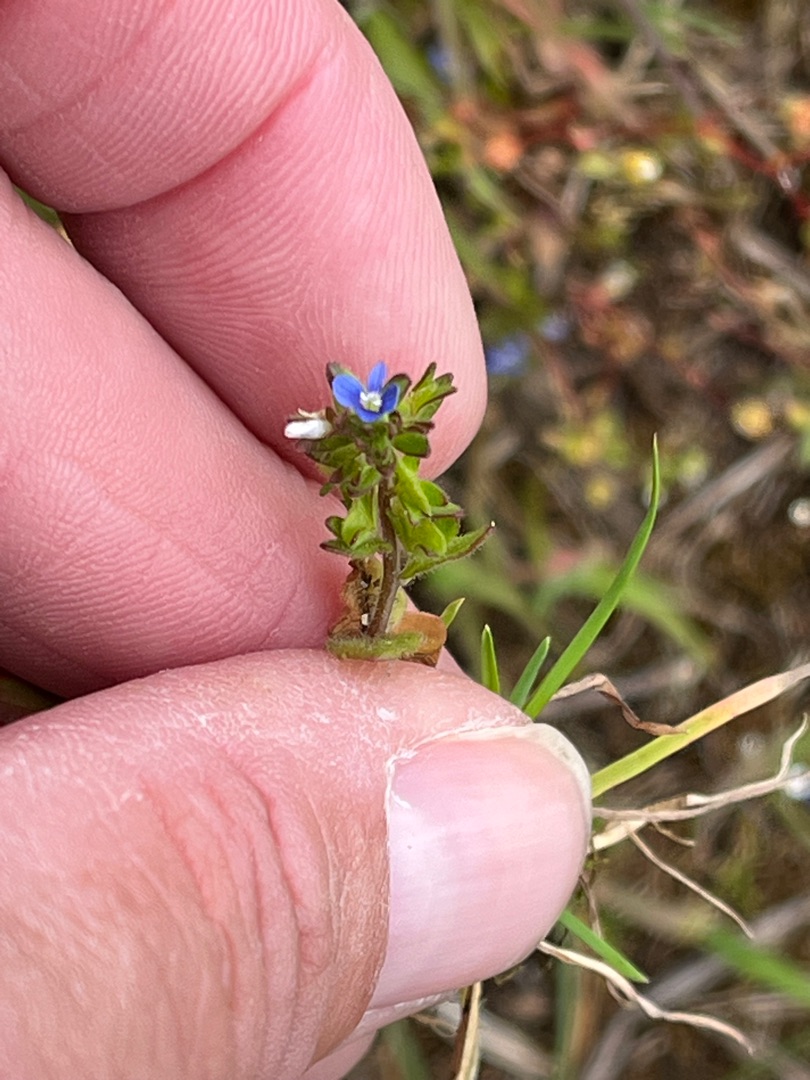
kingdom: Plantae
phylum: Tracheophyta
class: Magnoliopsida
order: Lamiales
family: Plantaginaceae
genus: Veronica
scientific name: Veronica arvensis
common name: Mark-ærenpris
